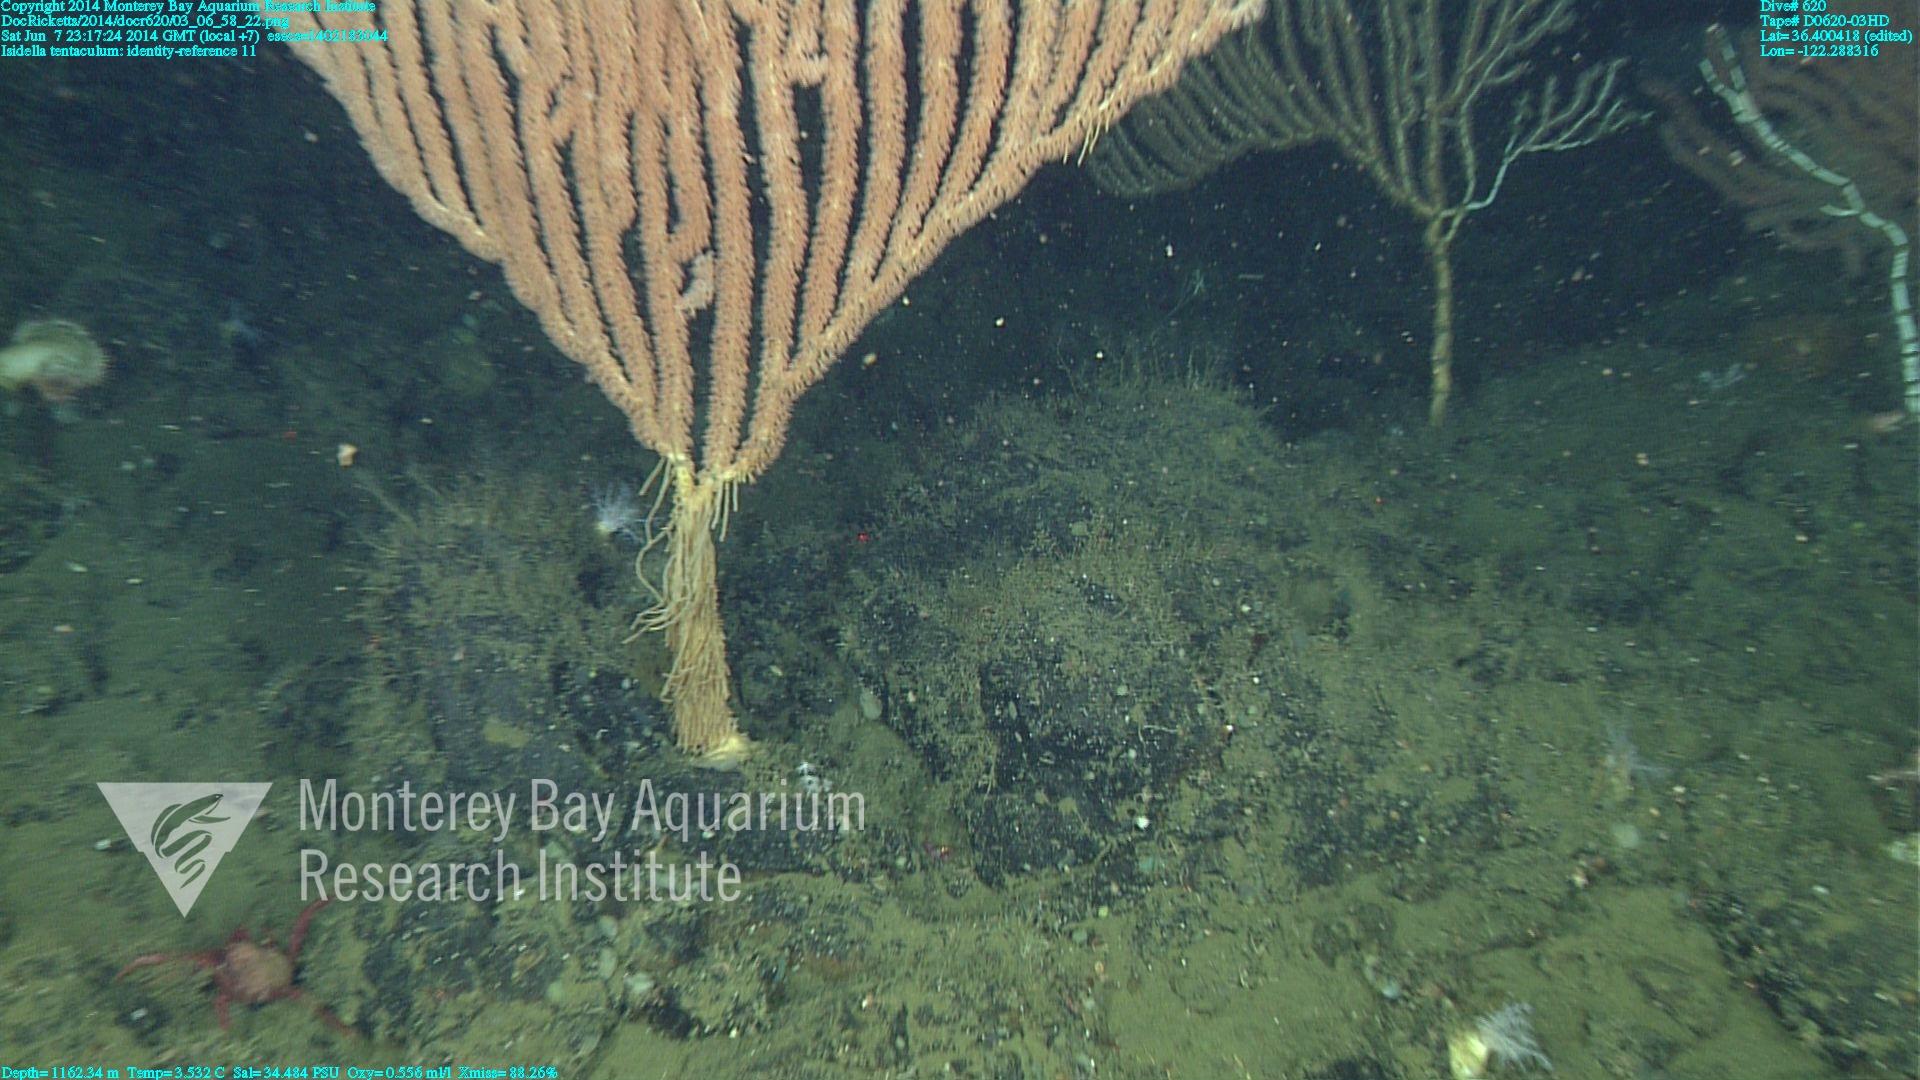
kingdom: Animalia
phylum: Cnidaria
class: Anthozoa
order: Scleralcyonacea
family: Keratoisididae
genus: Isidella
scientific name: Isidella tentaculum
